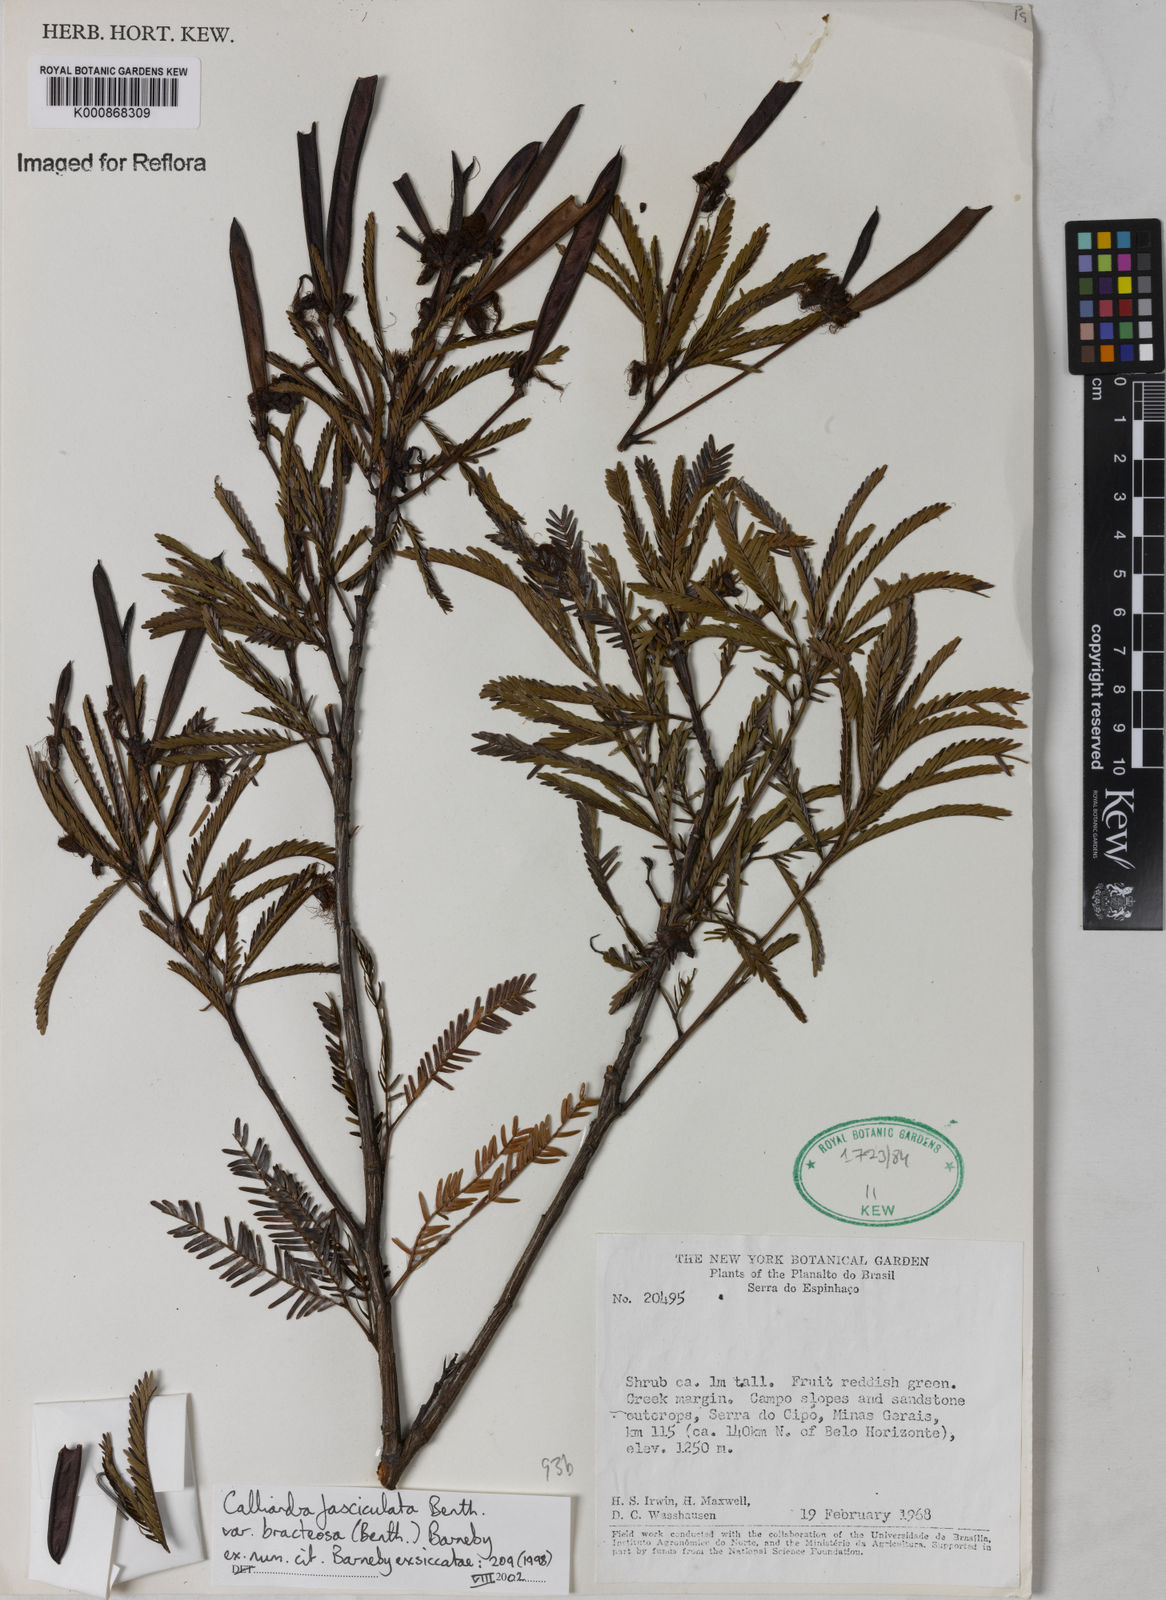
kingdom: Plantae
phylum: Tracheophyta
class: Magnoliopsida
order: Fabales
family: Fabaceae
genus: Calliandra
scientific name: Calliandra fasciculata
